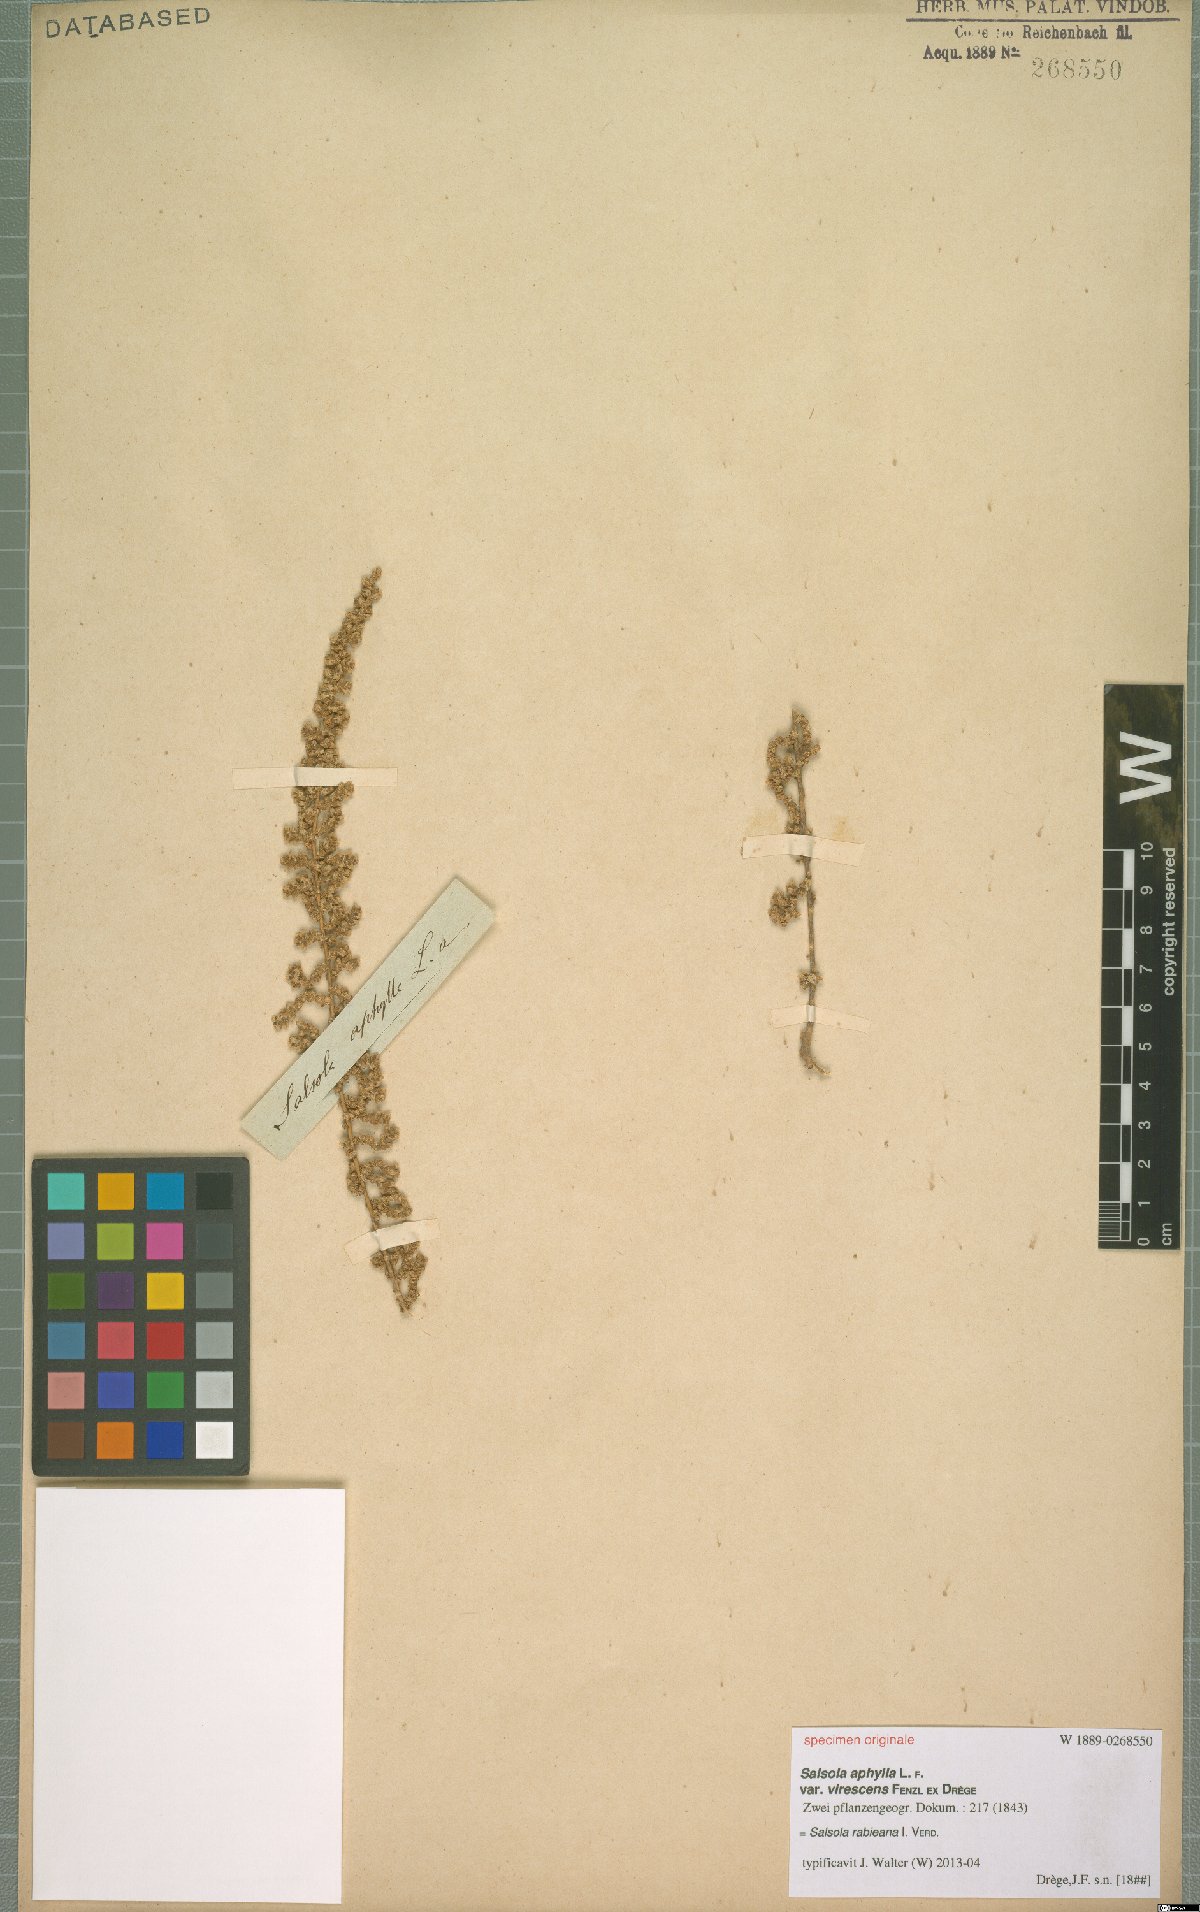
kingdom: Plantae
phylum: Tracheophyta
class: Magnoliopsida
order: Caryophyllales
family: Amaranthaceae
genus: Caroxylon
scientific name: Caroxylon rabieanum
